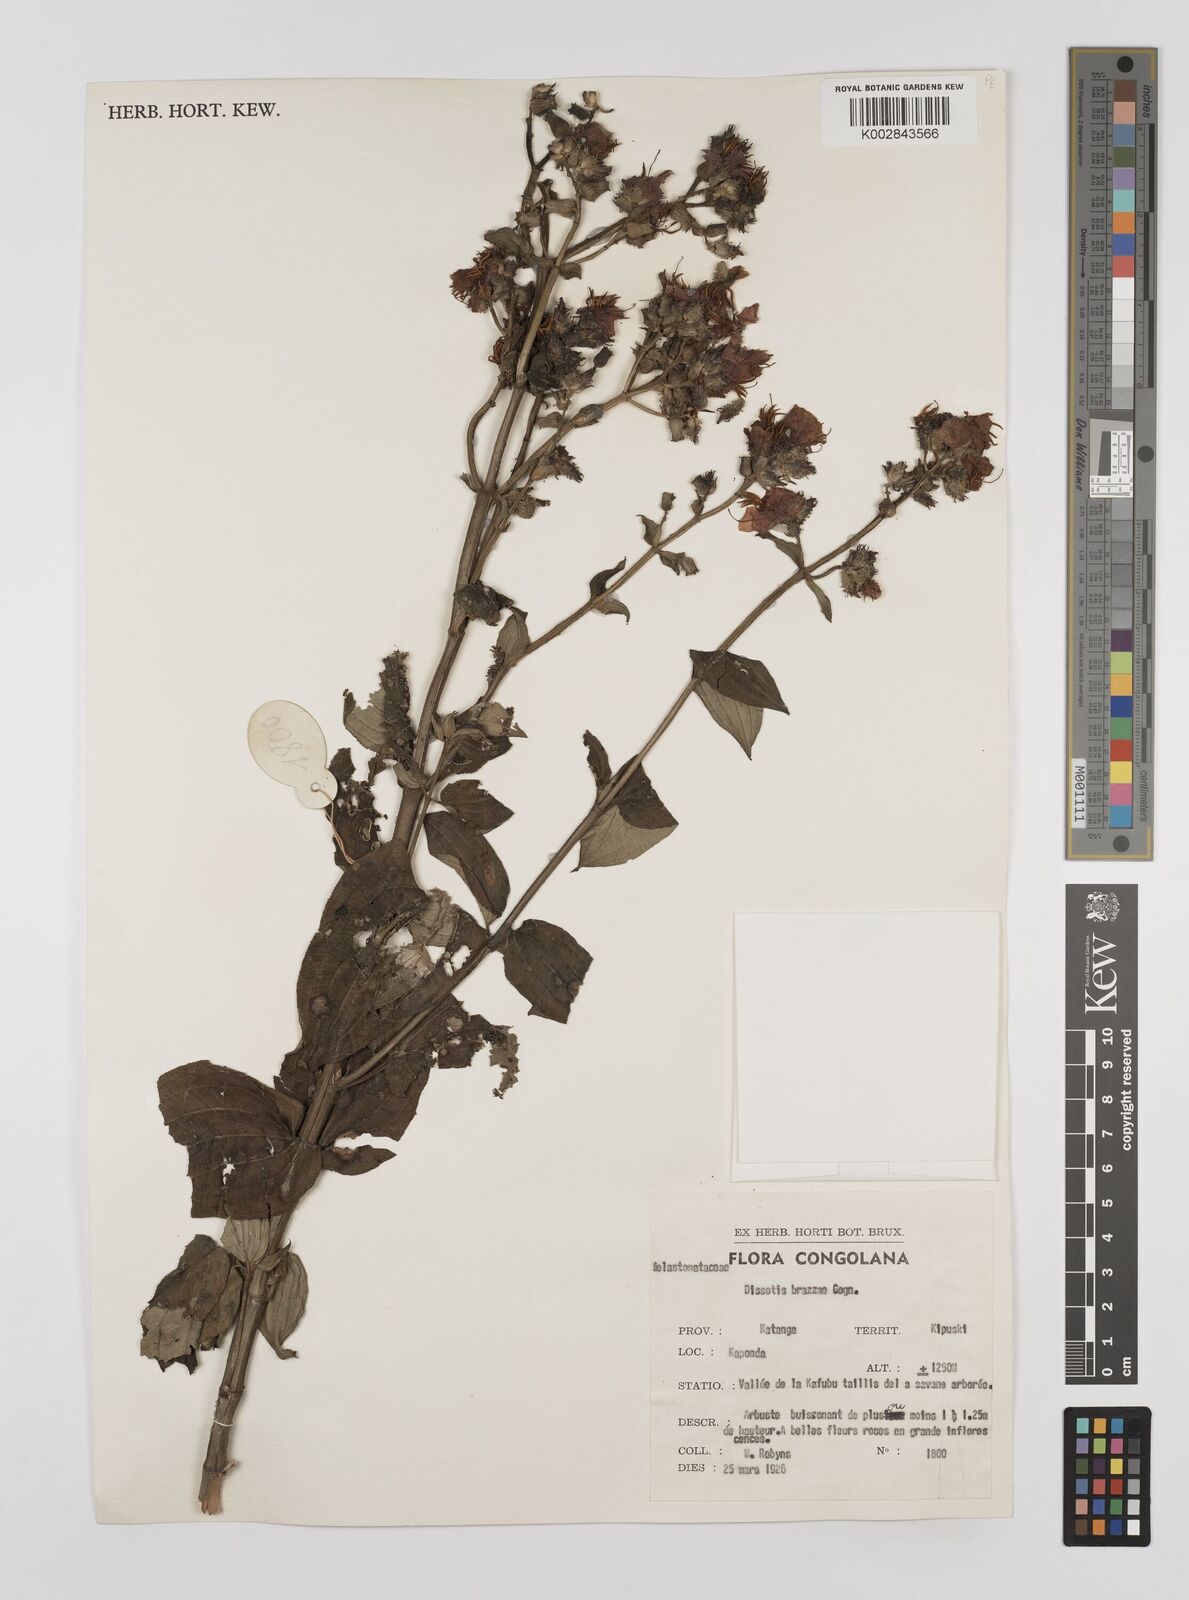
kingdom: Plantae
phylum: Tracheophyta
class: Magnoliopsida
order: Myrtales
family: Melastomataceae
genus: Dupineta
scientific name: Dupineta brazzae
